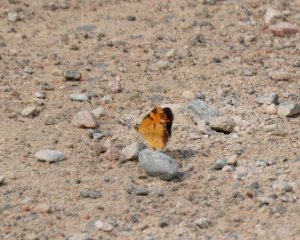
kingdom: Animalia
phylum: Arthropoda
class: Insecta
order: Lepidoptera
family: Nymphalidae
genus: Phyciodes
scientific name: Phyciodes tharos
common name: Northern Crescent
